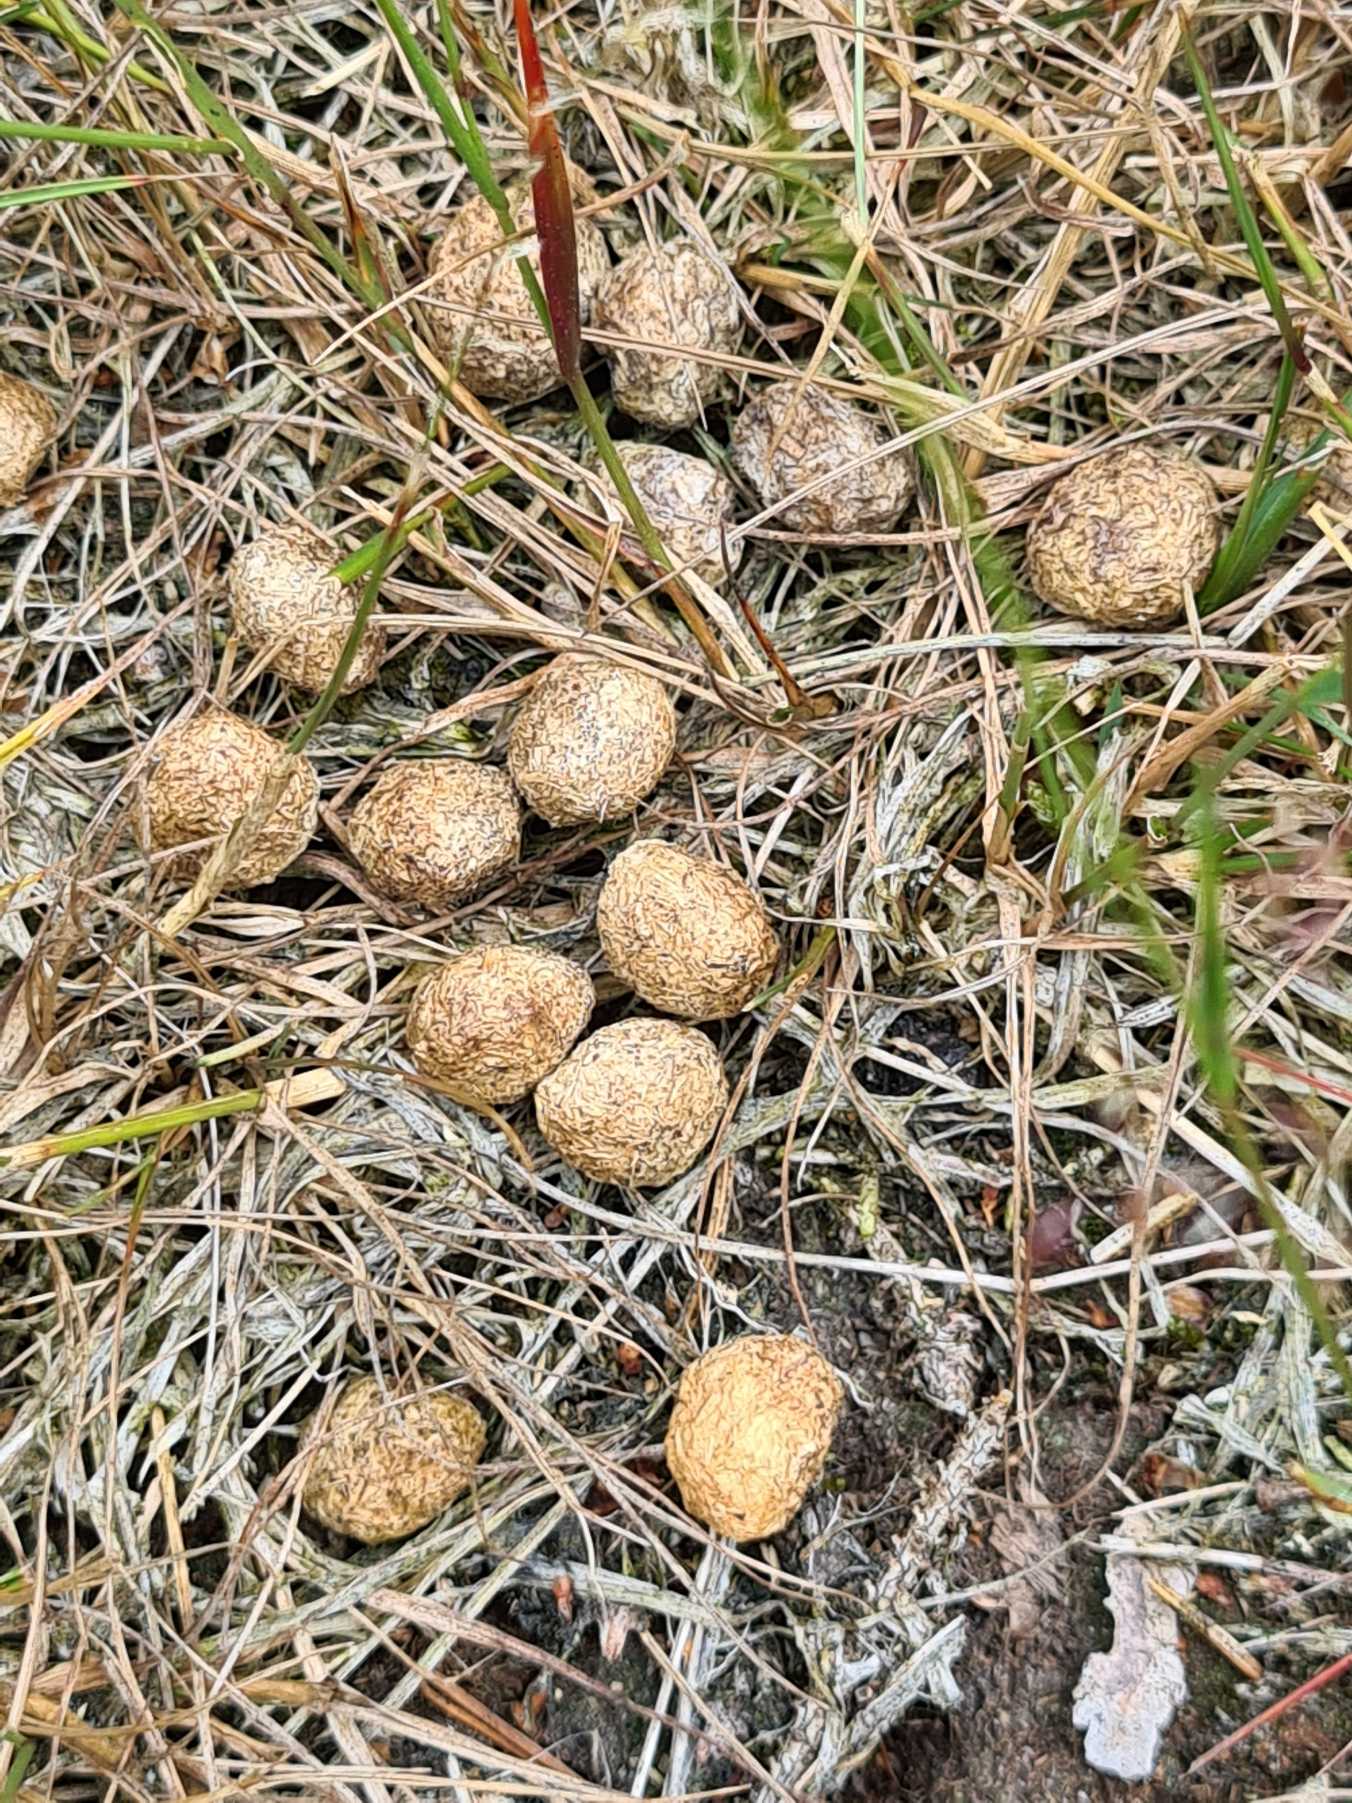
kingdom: Animalia
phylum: Chordata
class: Mammalia
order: Lagomorpha
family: Leporidae
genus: Lepus
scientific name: Lepus europaeus
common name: Hare
